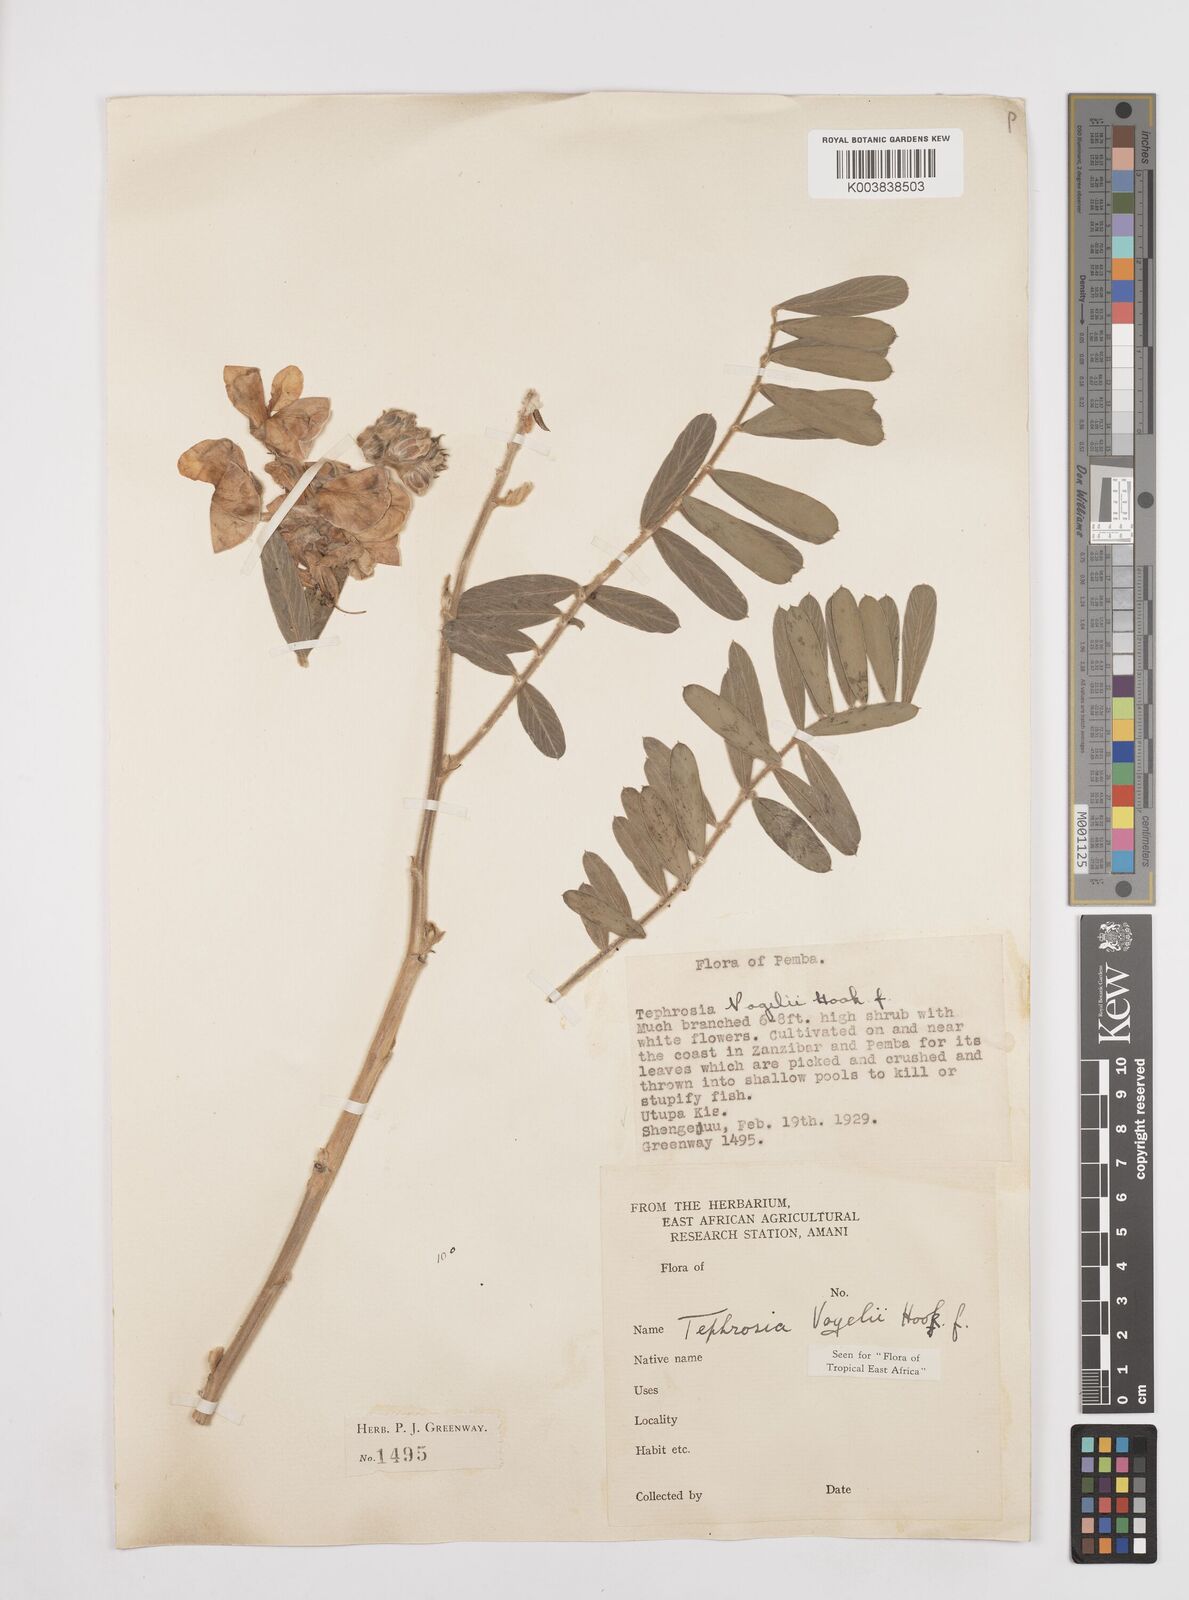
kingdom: Plantae
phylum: Tracheophyta
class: Magnoliopsida
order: Fabales
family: Fabaceae
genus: Tephrosia
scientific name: Tephrosia vogelii
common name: Vogel tephrosia
